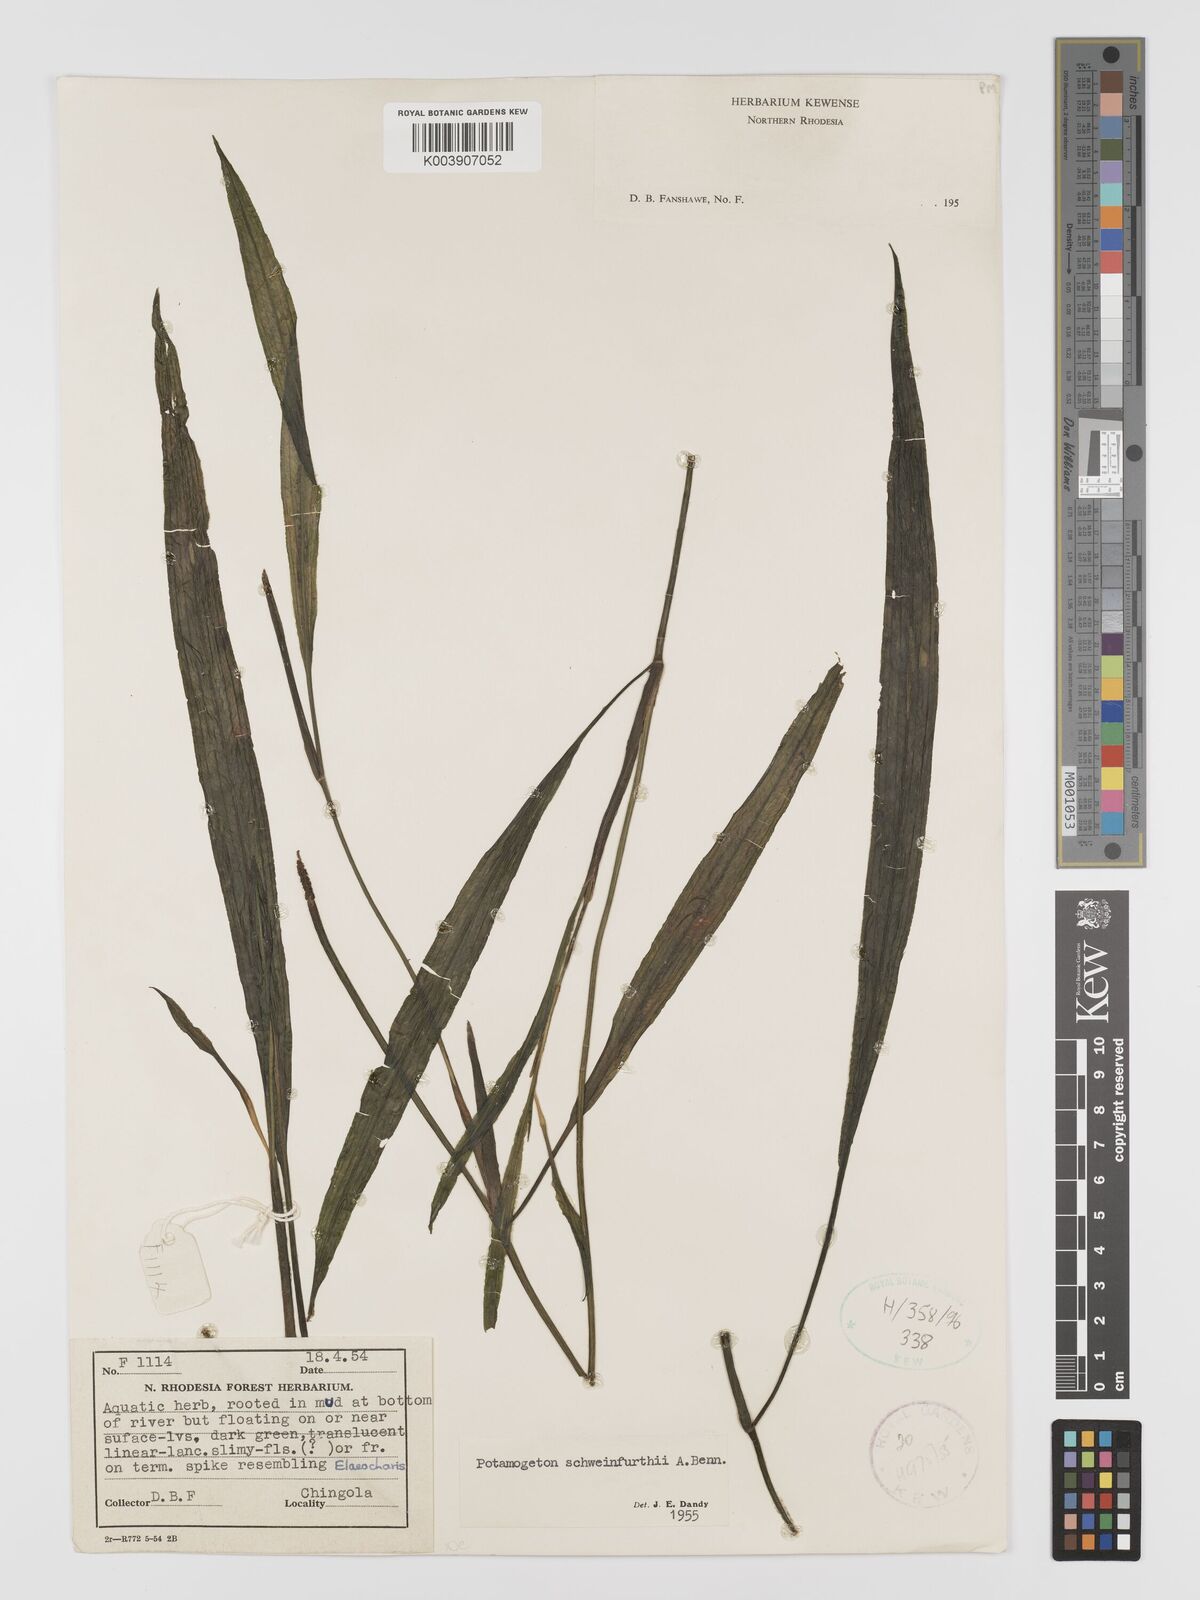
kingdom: Plantae
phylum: Tracheophyta
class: Liliopsida
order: Alismatales
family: Potamogetonaceae
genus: Potamogeton
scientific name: Potamogeton schweinfurthii
